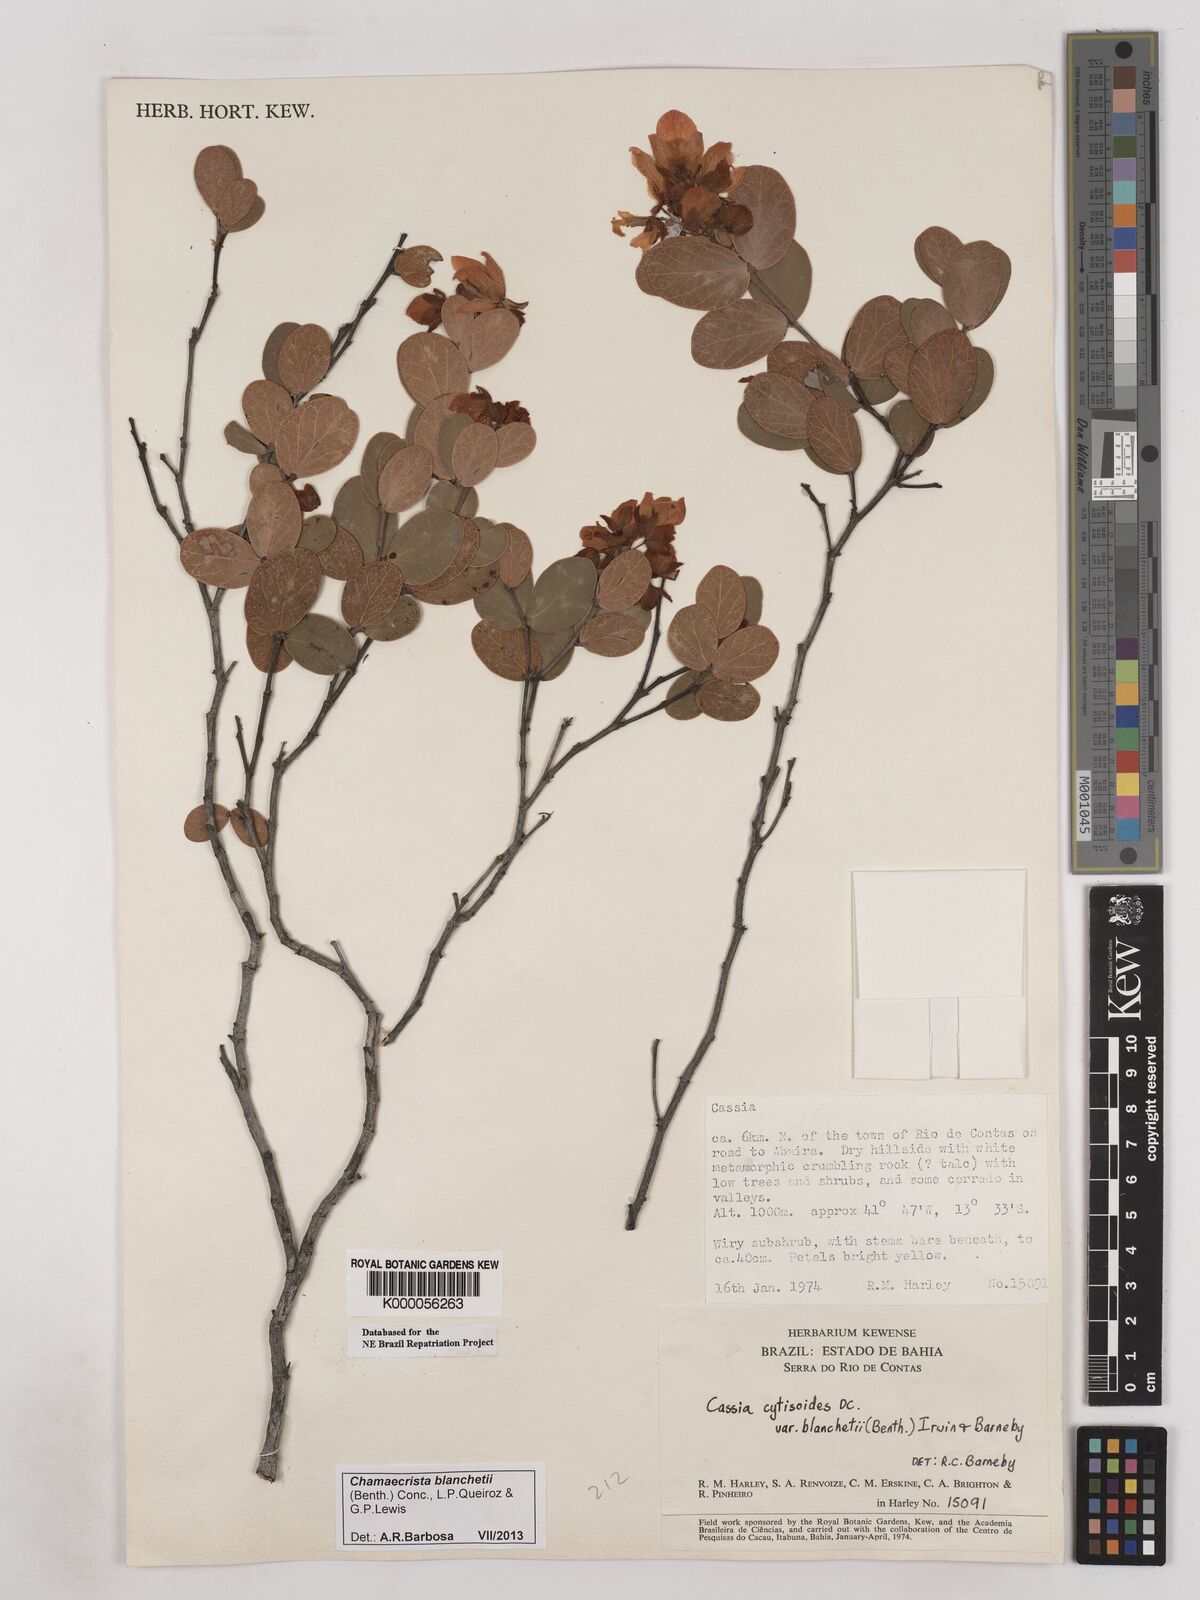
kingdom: Plantae
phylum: Tracheophyta
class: Magnoliopsida
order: Fabales
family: Fabaceae
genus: Chamaecrista
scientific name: Chamaecrista cytisoides
